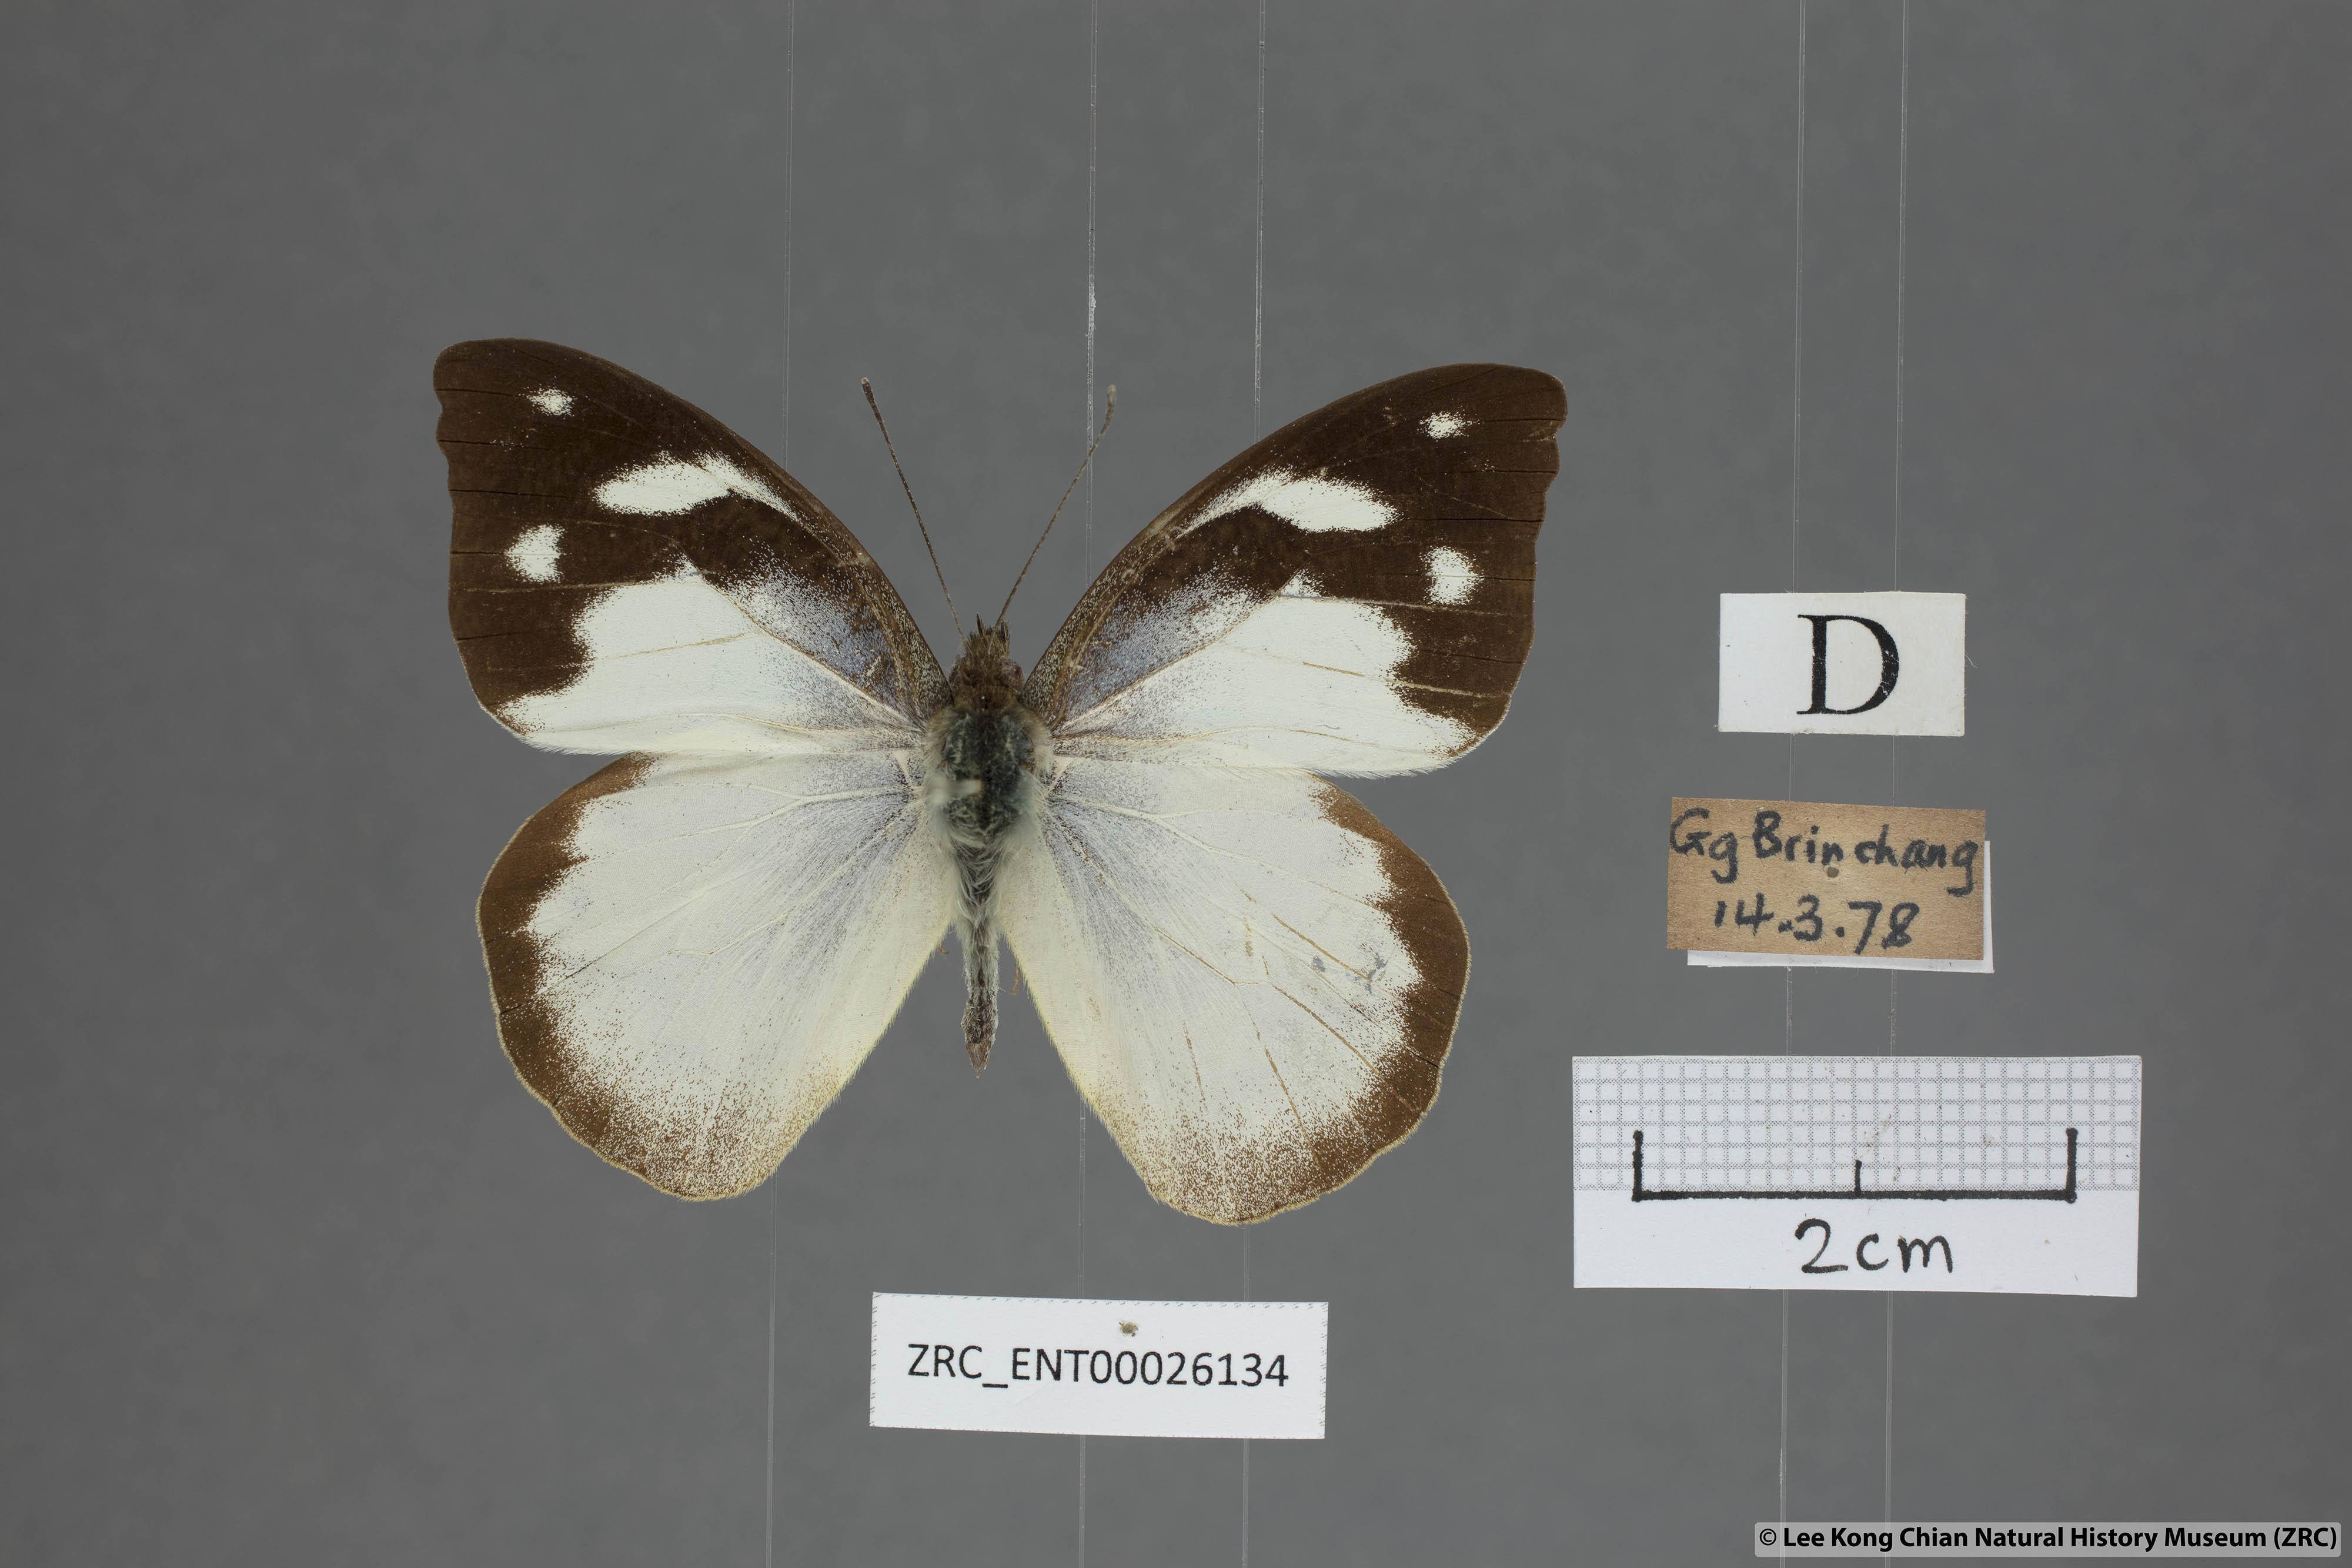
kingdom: Animalia
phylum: Arthropoda
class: Insecta
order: Lepidoptera
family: Pieridae
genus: Appias
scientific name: Appias pandione
